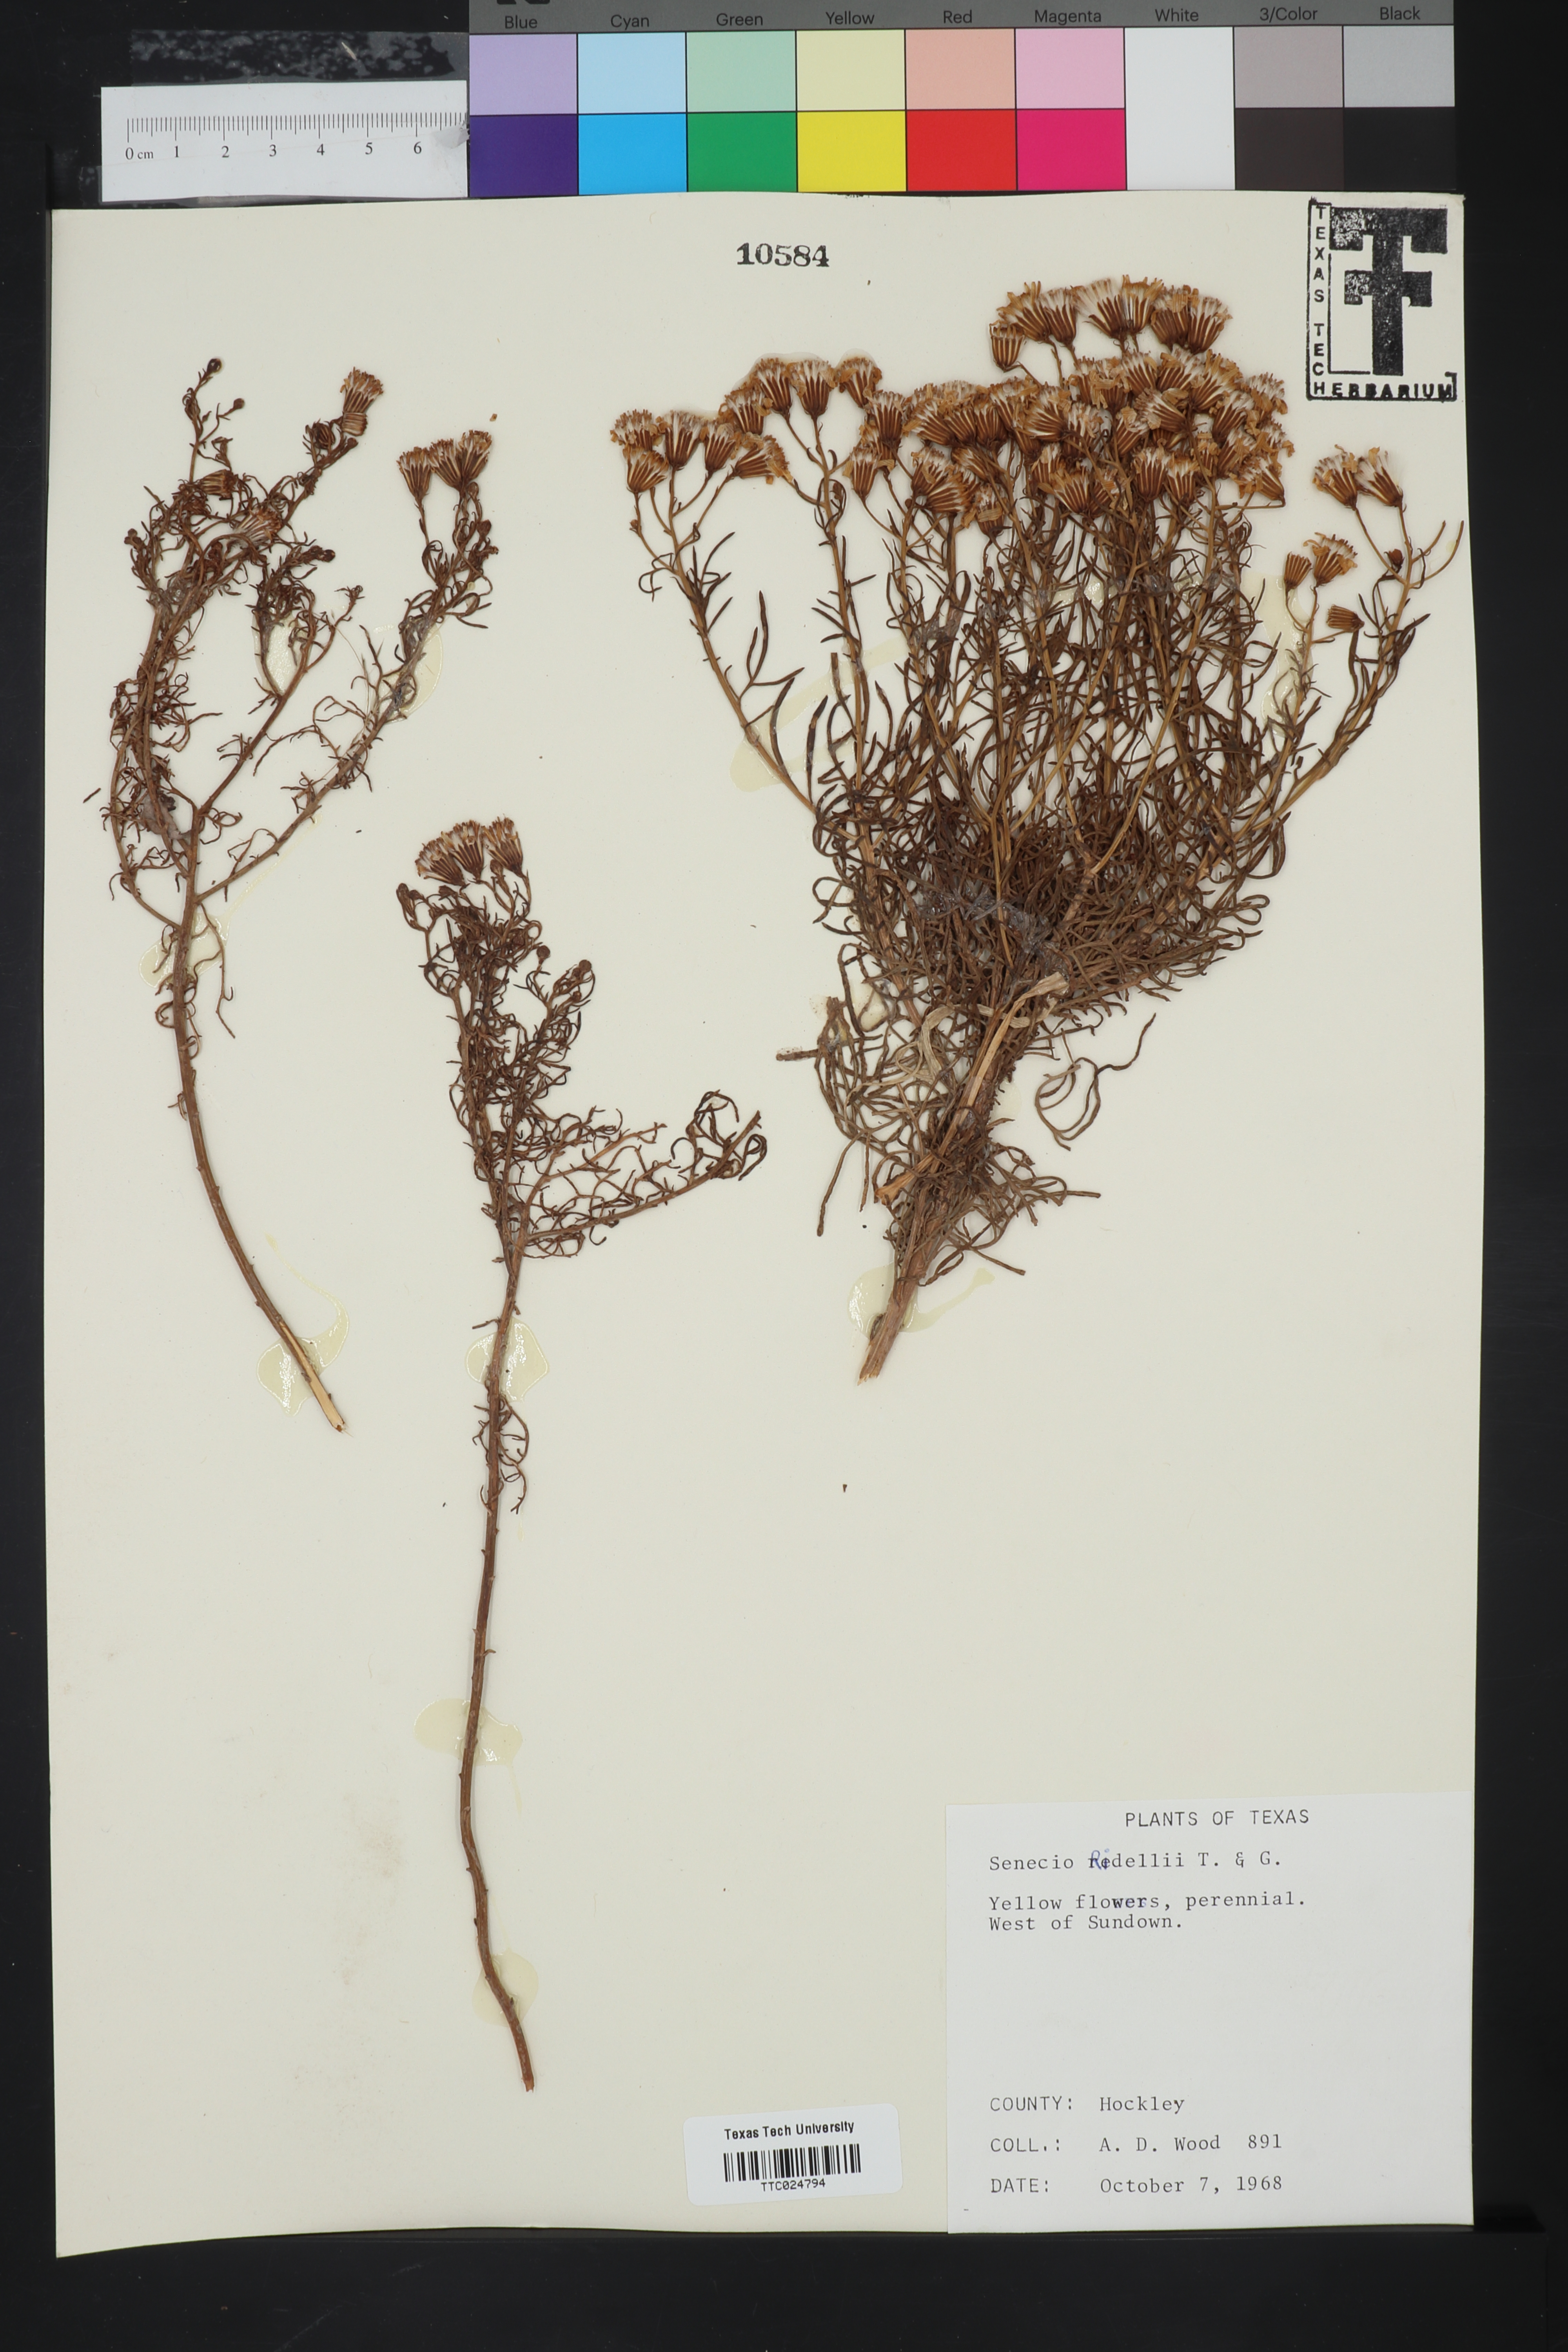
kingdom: Plantae
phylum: Tracheophyta
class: Magnoliopsida
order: Asterales
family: Asteraceae
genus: Senecio
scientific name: Senecio riddellii
